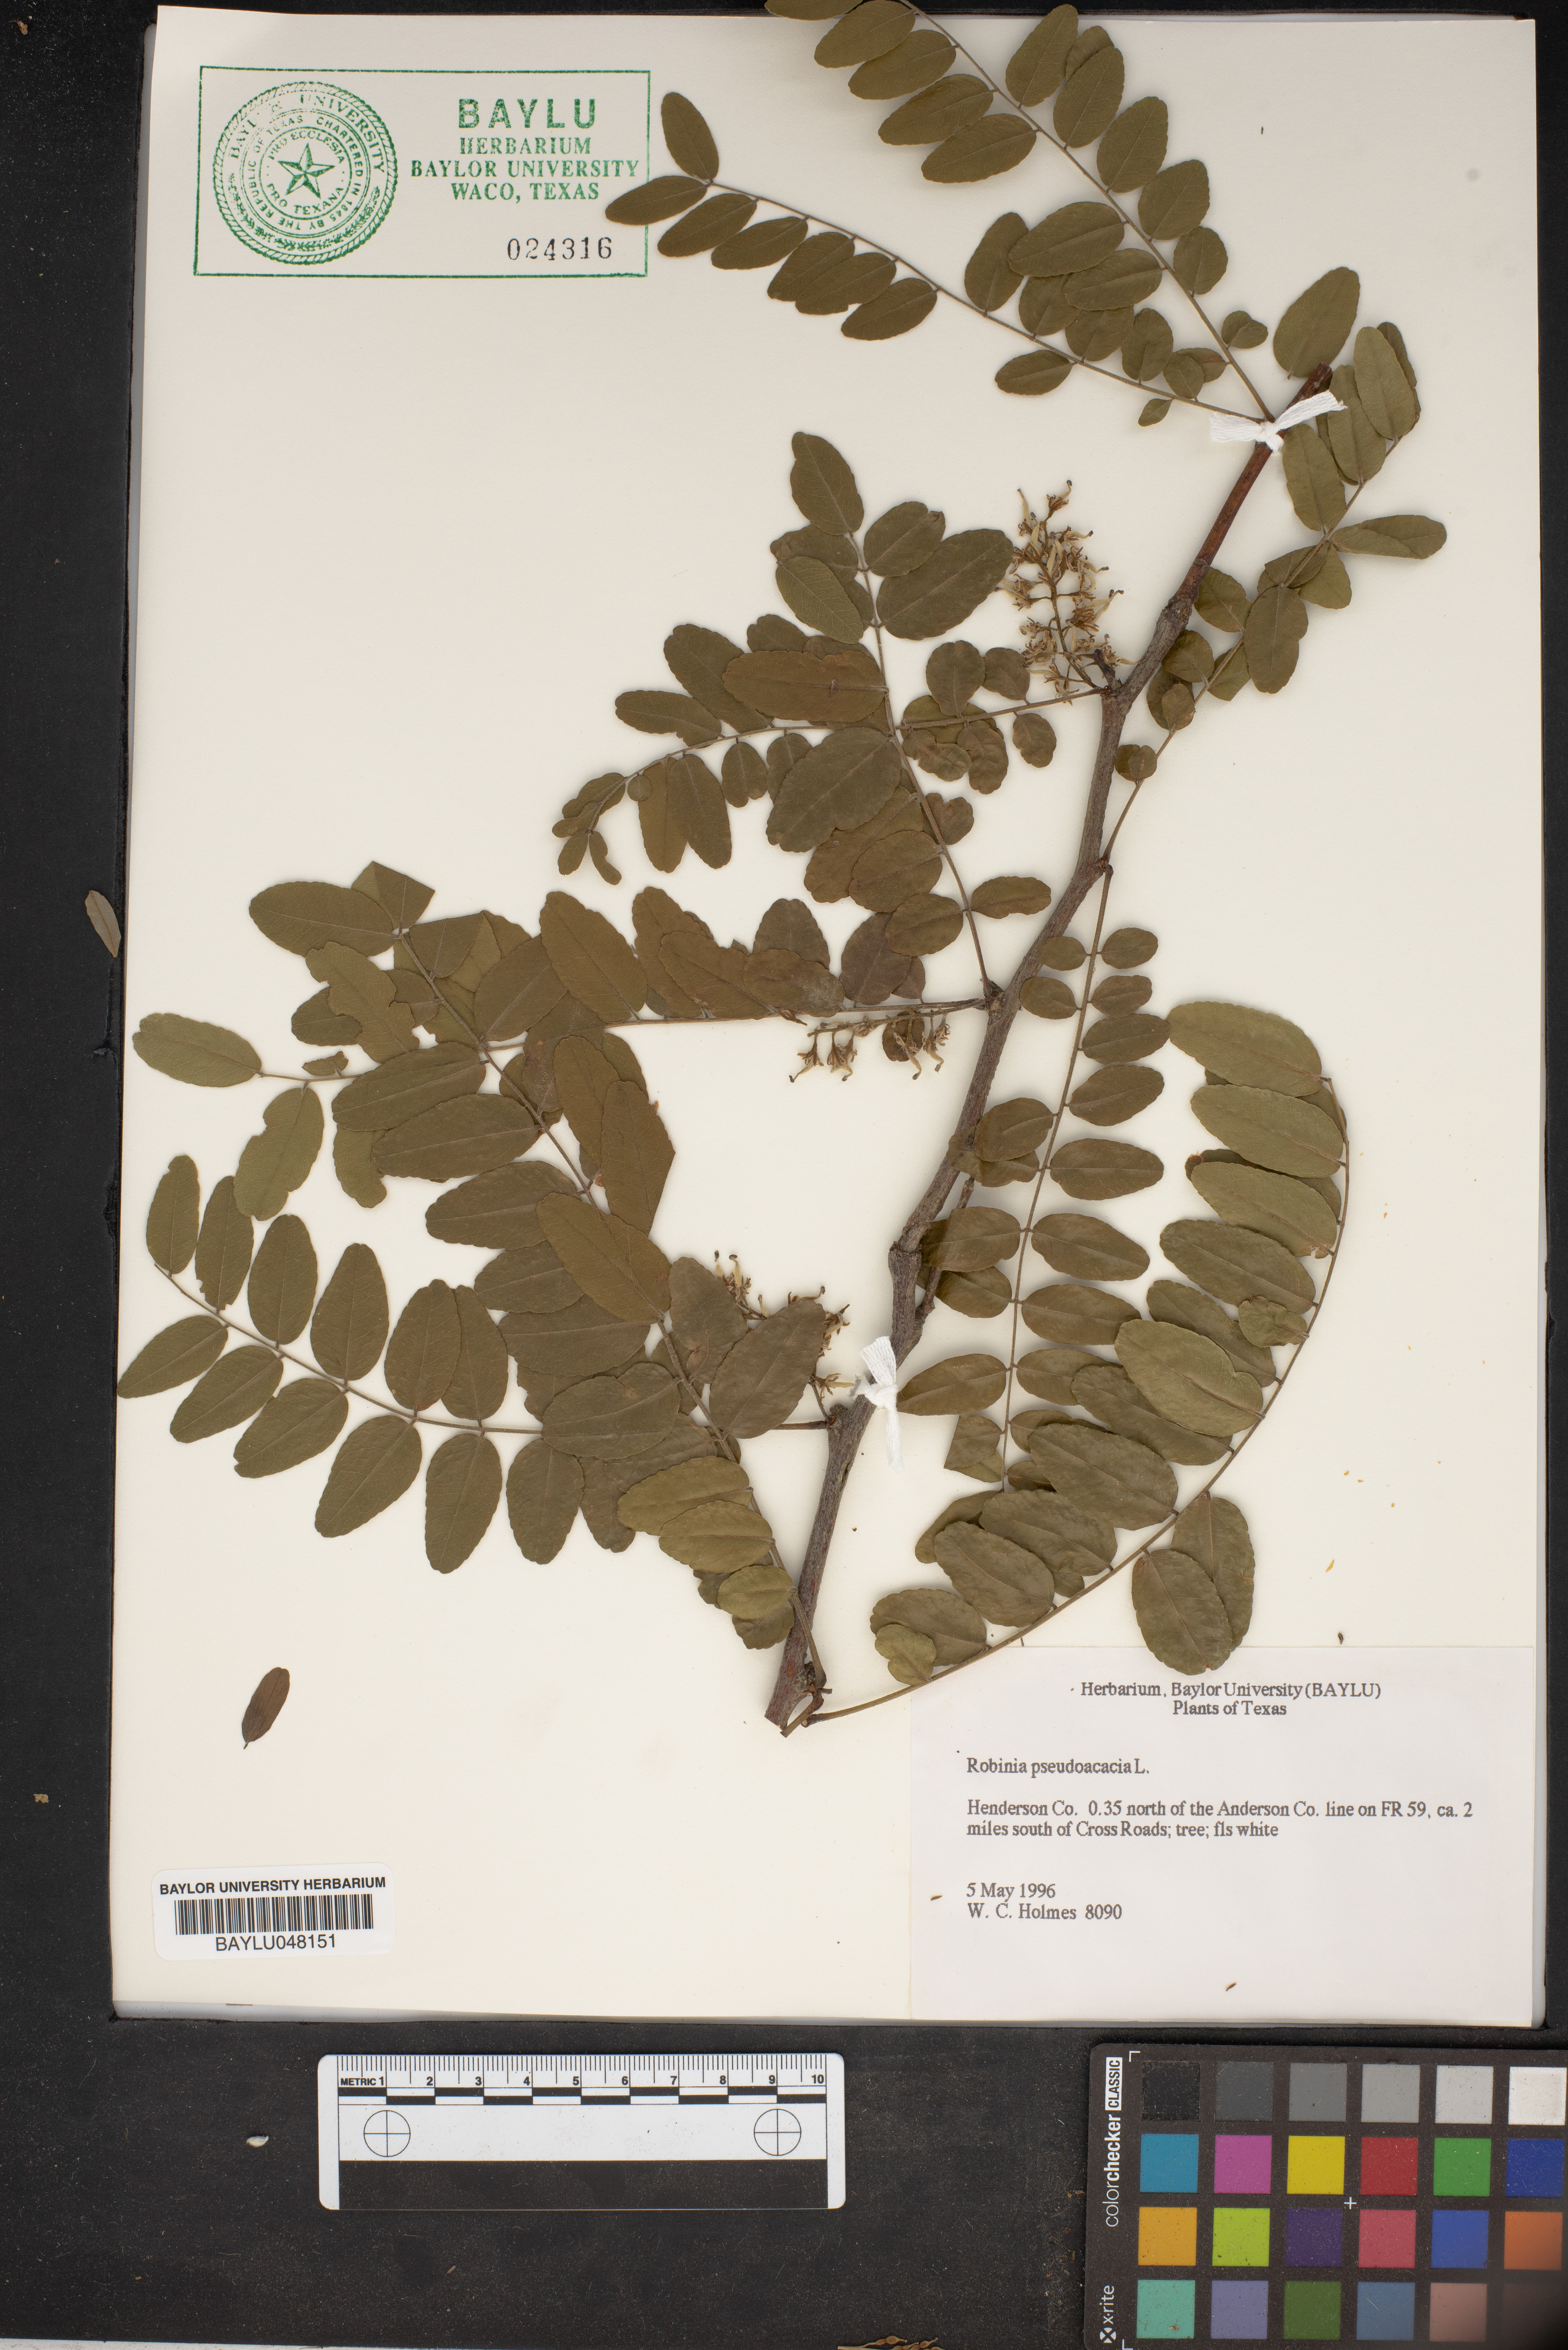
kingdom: Plantae
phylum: Tracheophyta
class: Magnoliopsida
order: Fabales
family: Fabaceae
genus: Robinia
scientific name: Robinia pseudoacacia
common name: Black locust
